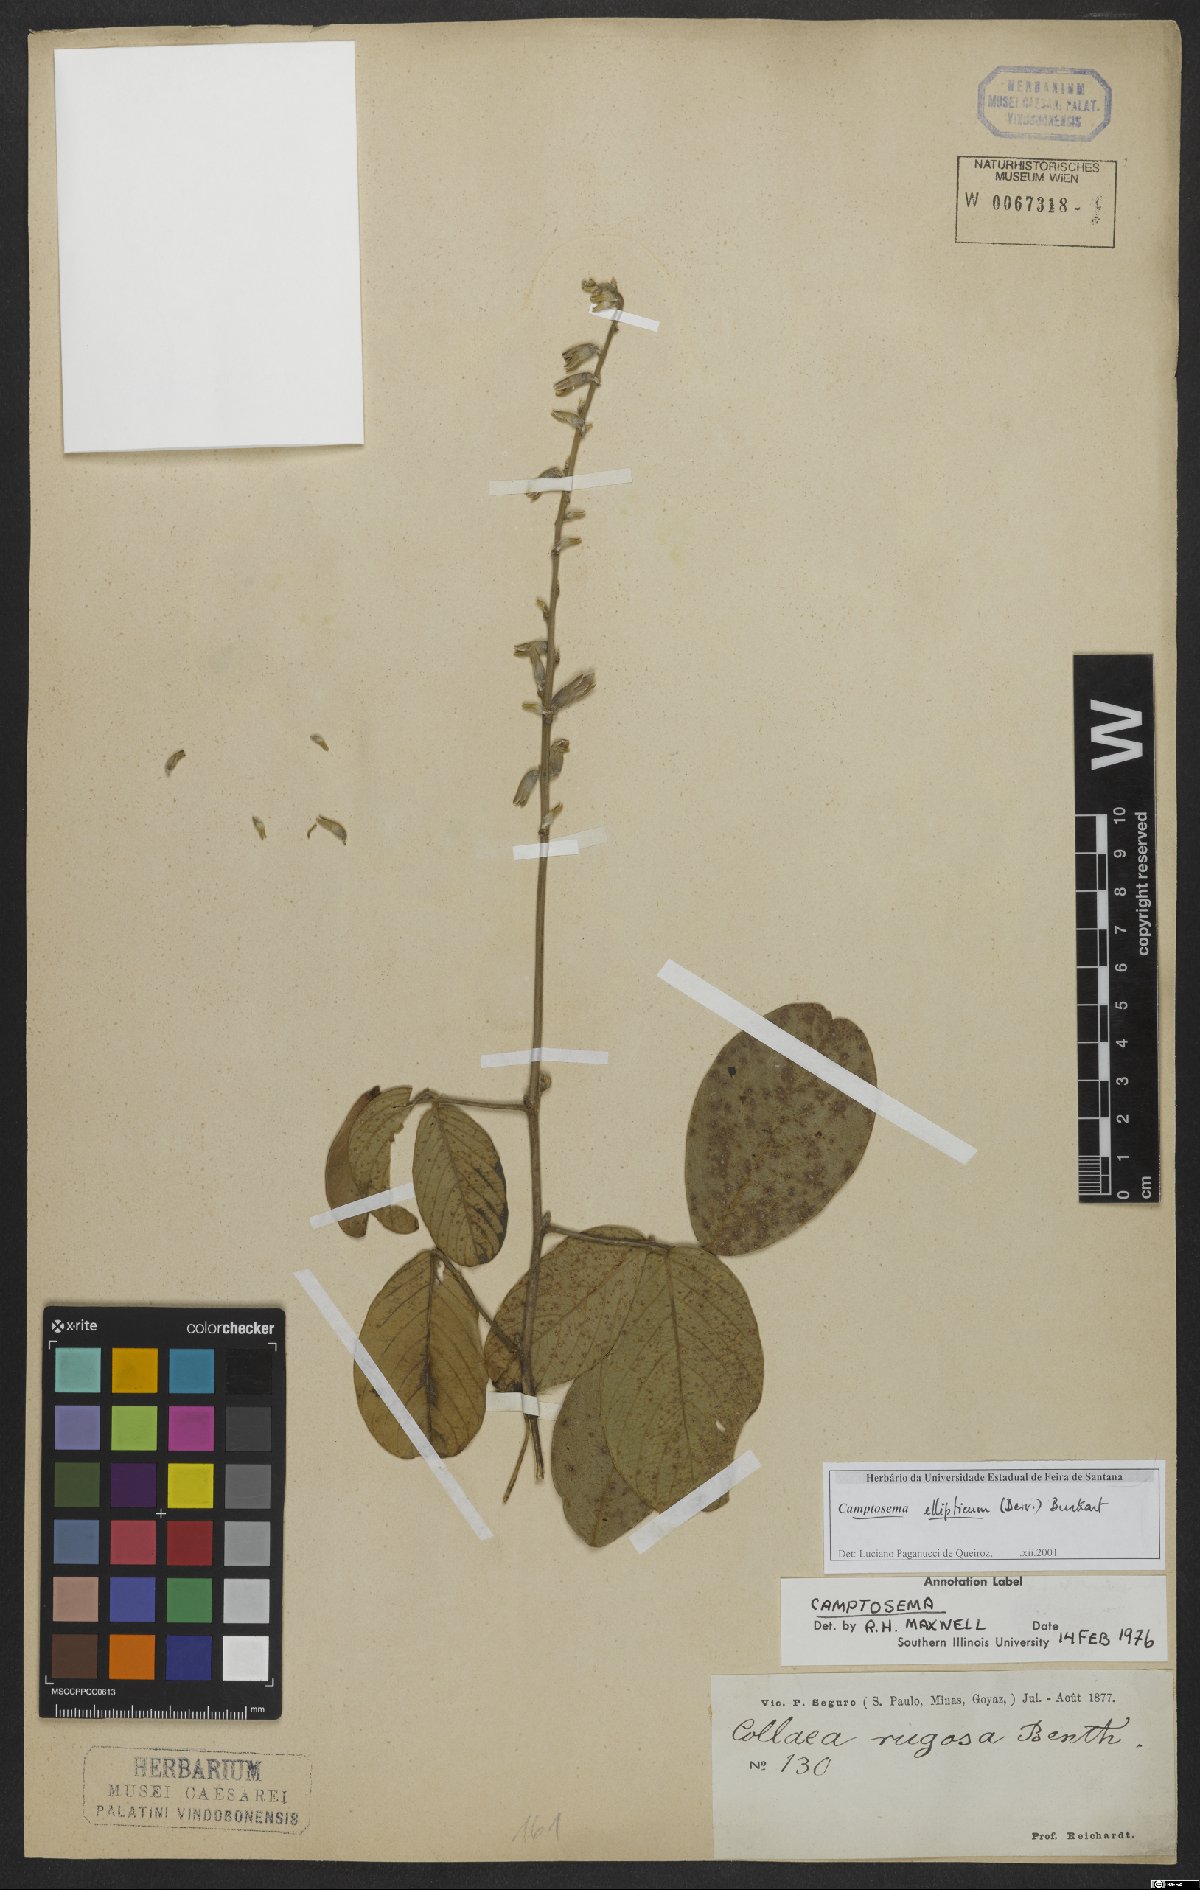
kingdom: Plantae
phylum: Tracheophyta
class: Magnoliopsida
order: Fabales
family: Fabaceae
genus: Cerradicola
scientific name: Cerradicola elliptica
